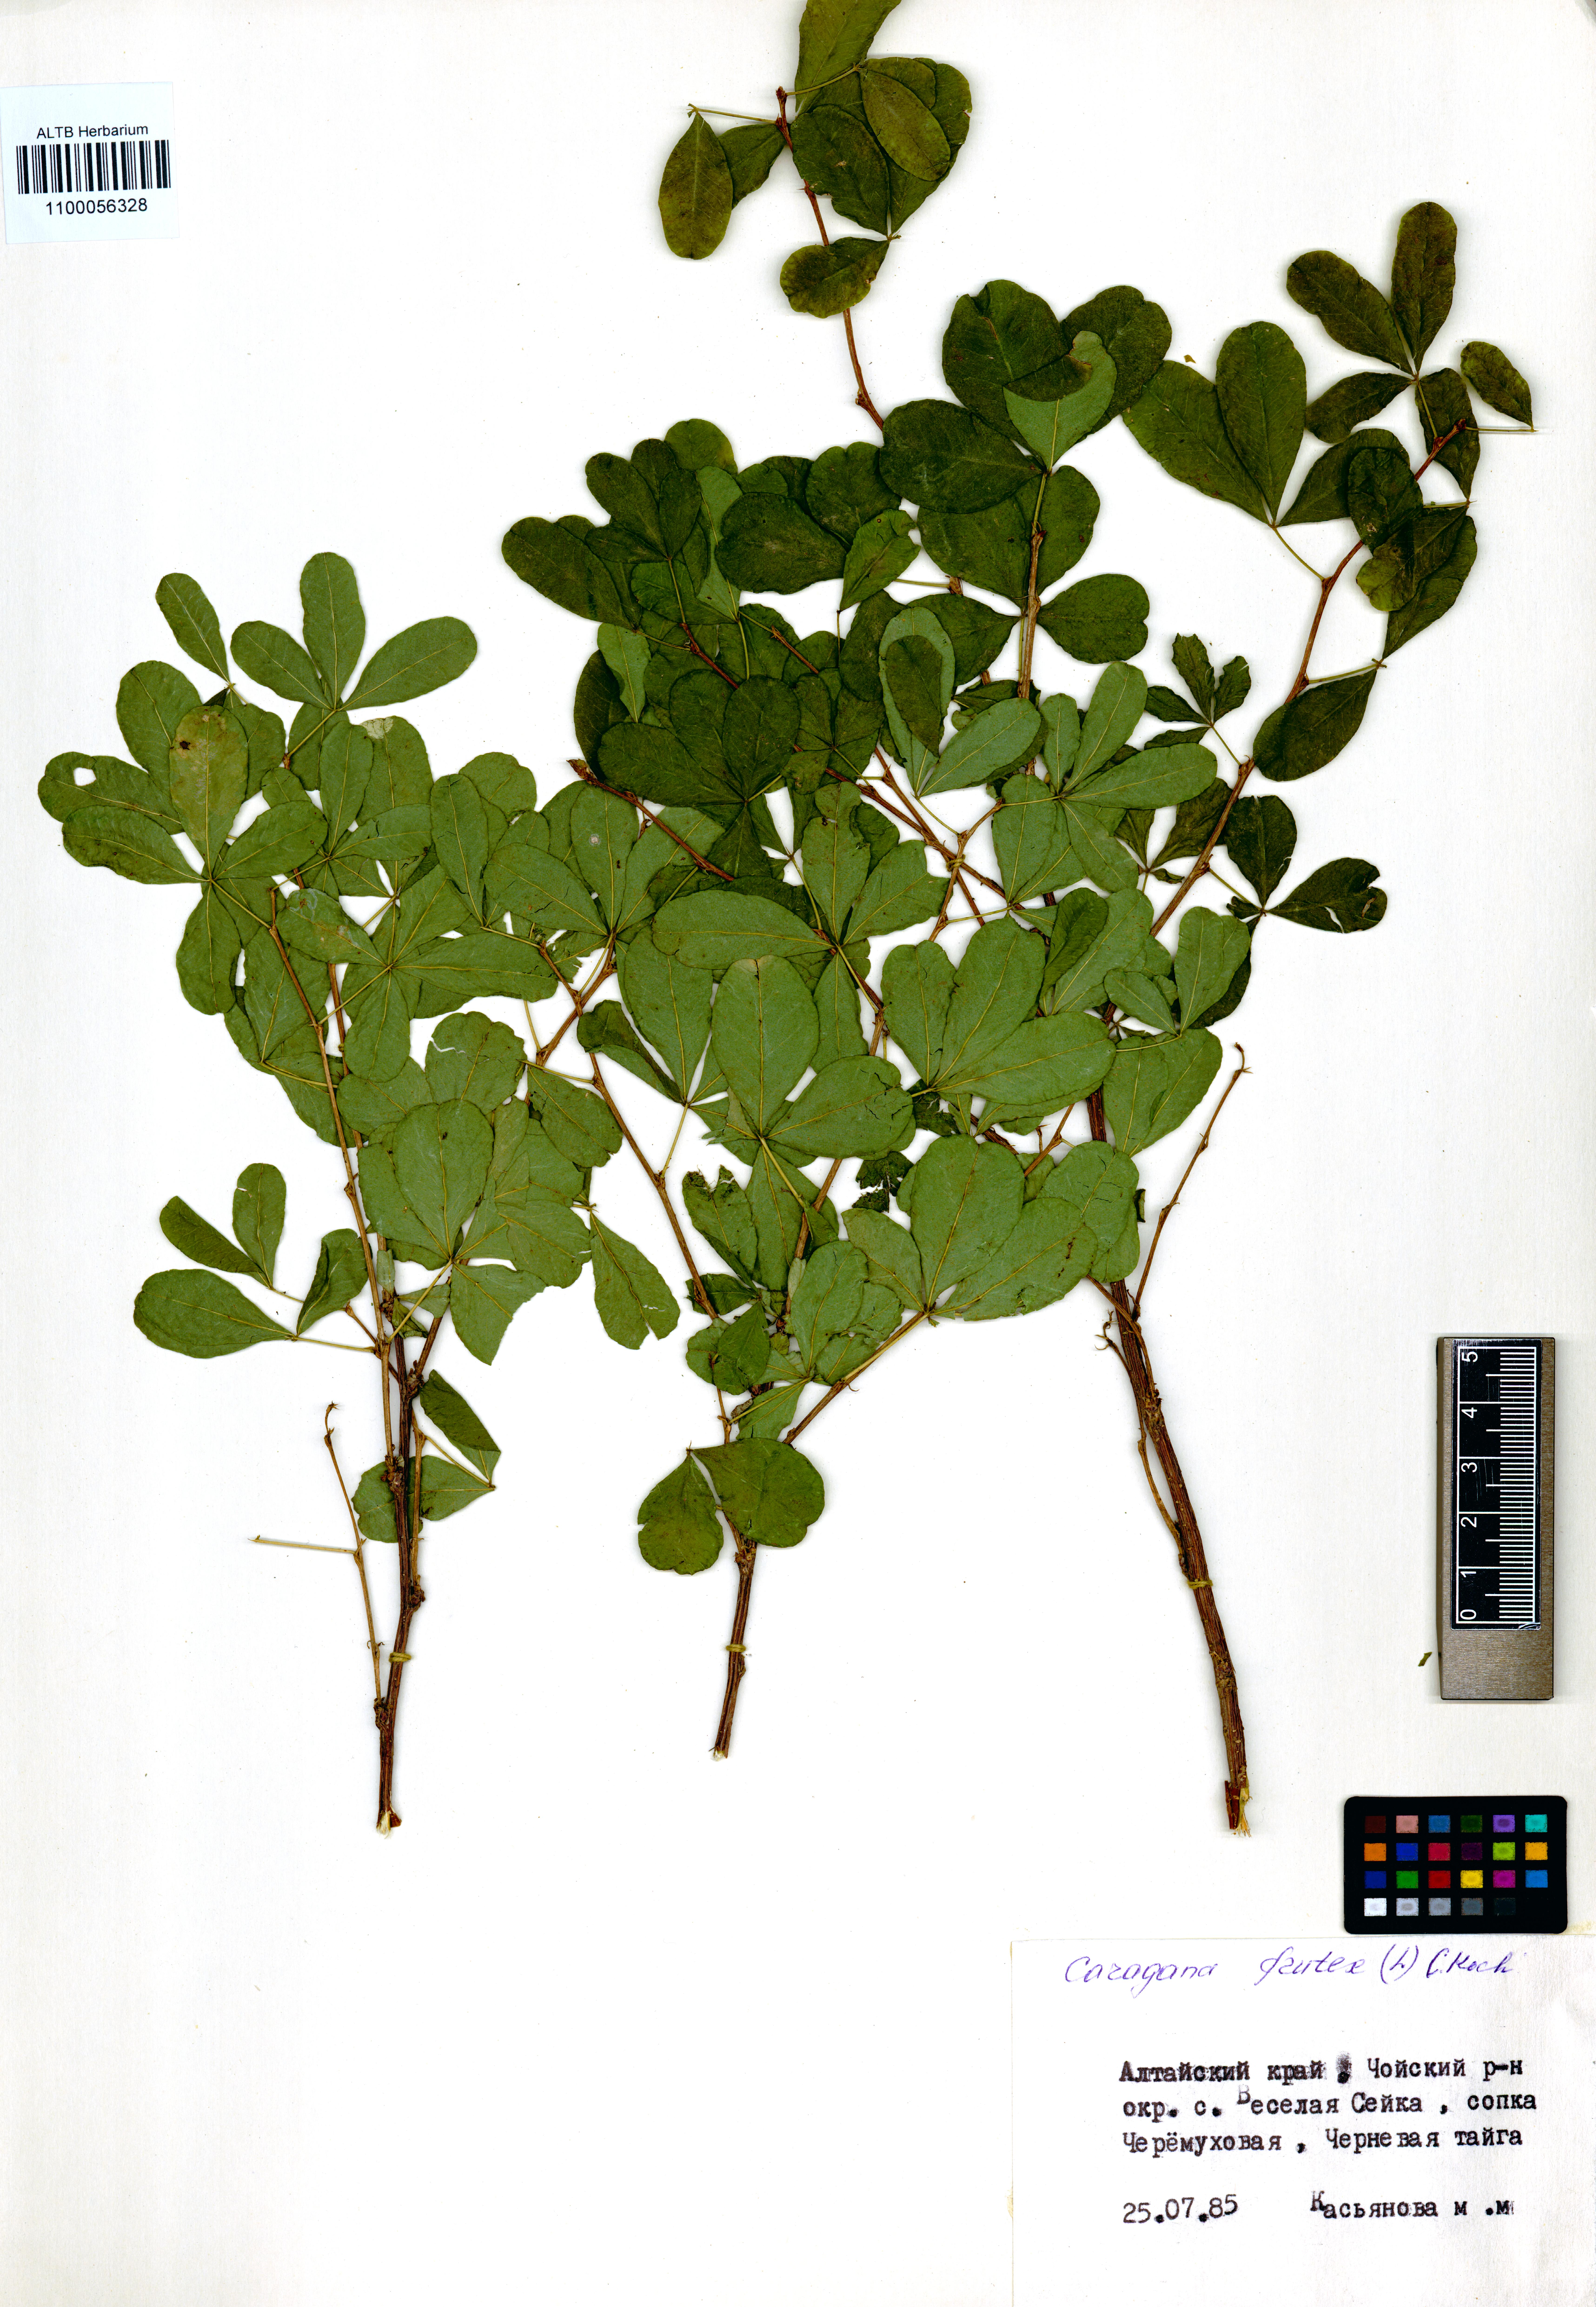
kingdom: Plantae
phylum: Tracheophyta
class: Magnoliopsida
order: Fabales
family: Fabaceae
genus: Caragana
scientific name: Caragana frutex
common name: Russian peashrub
